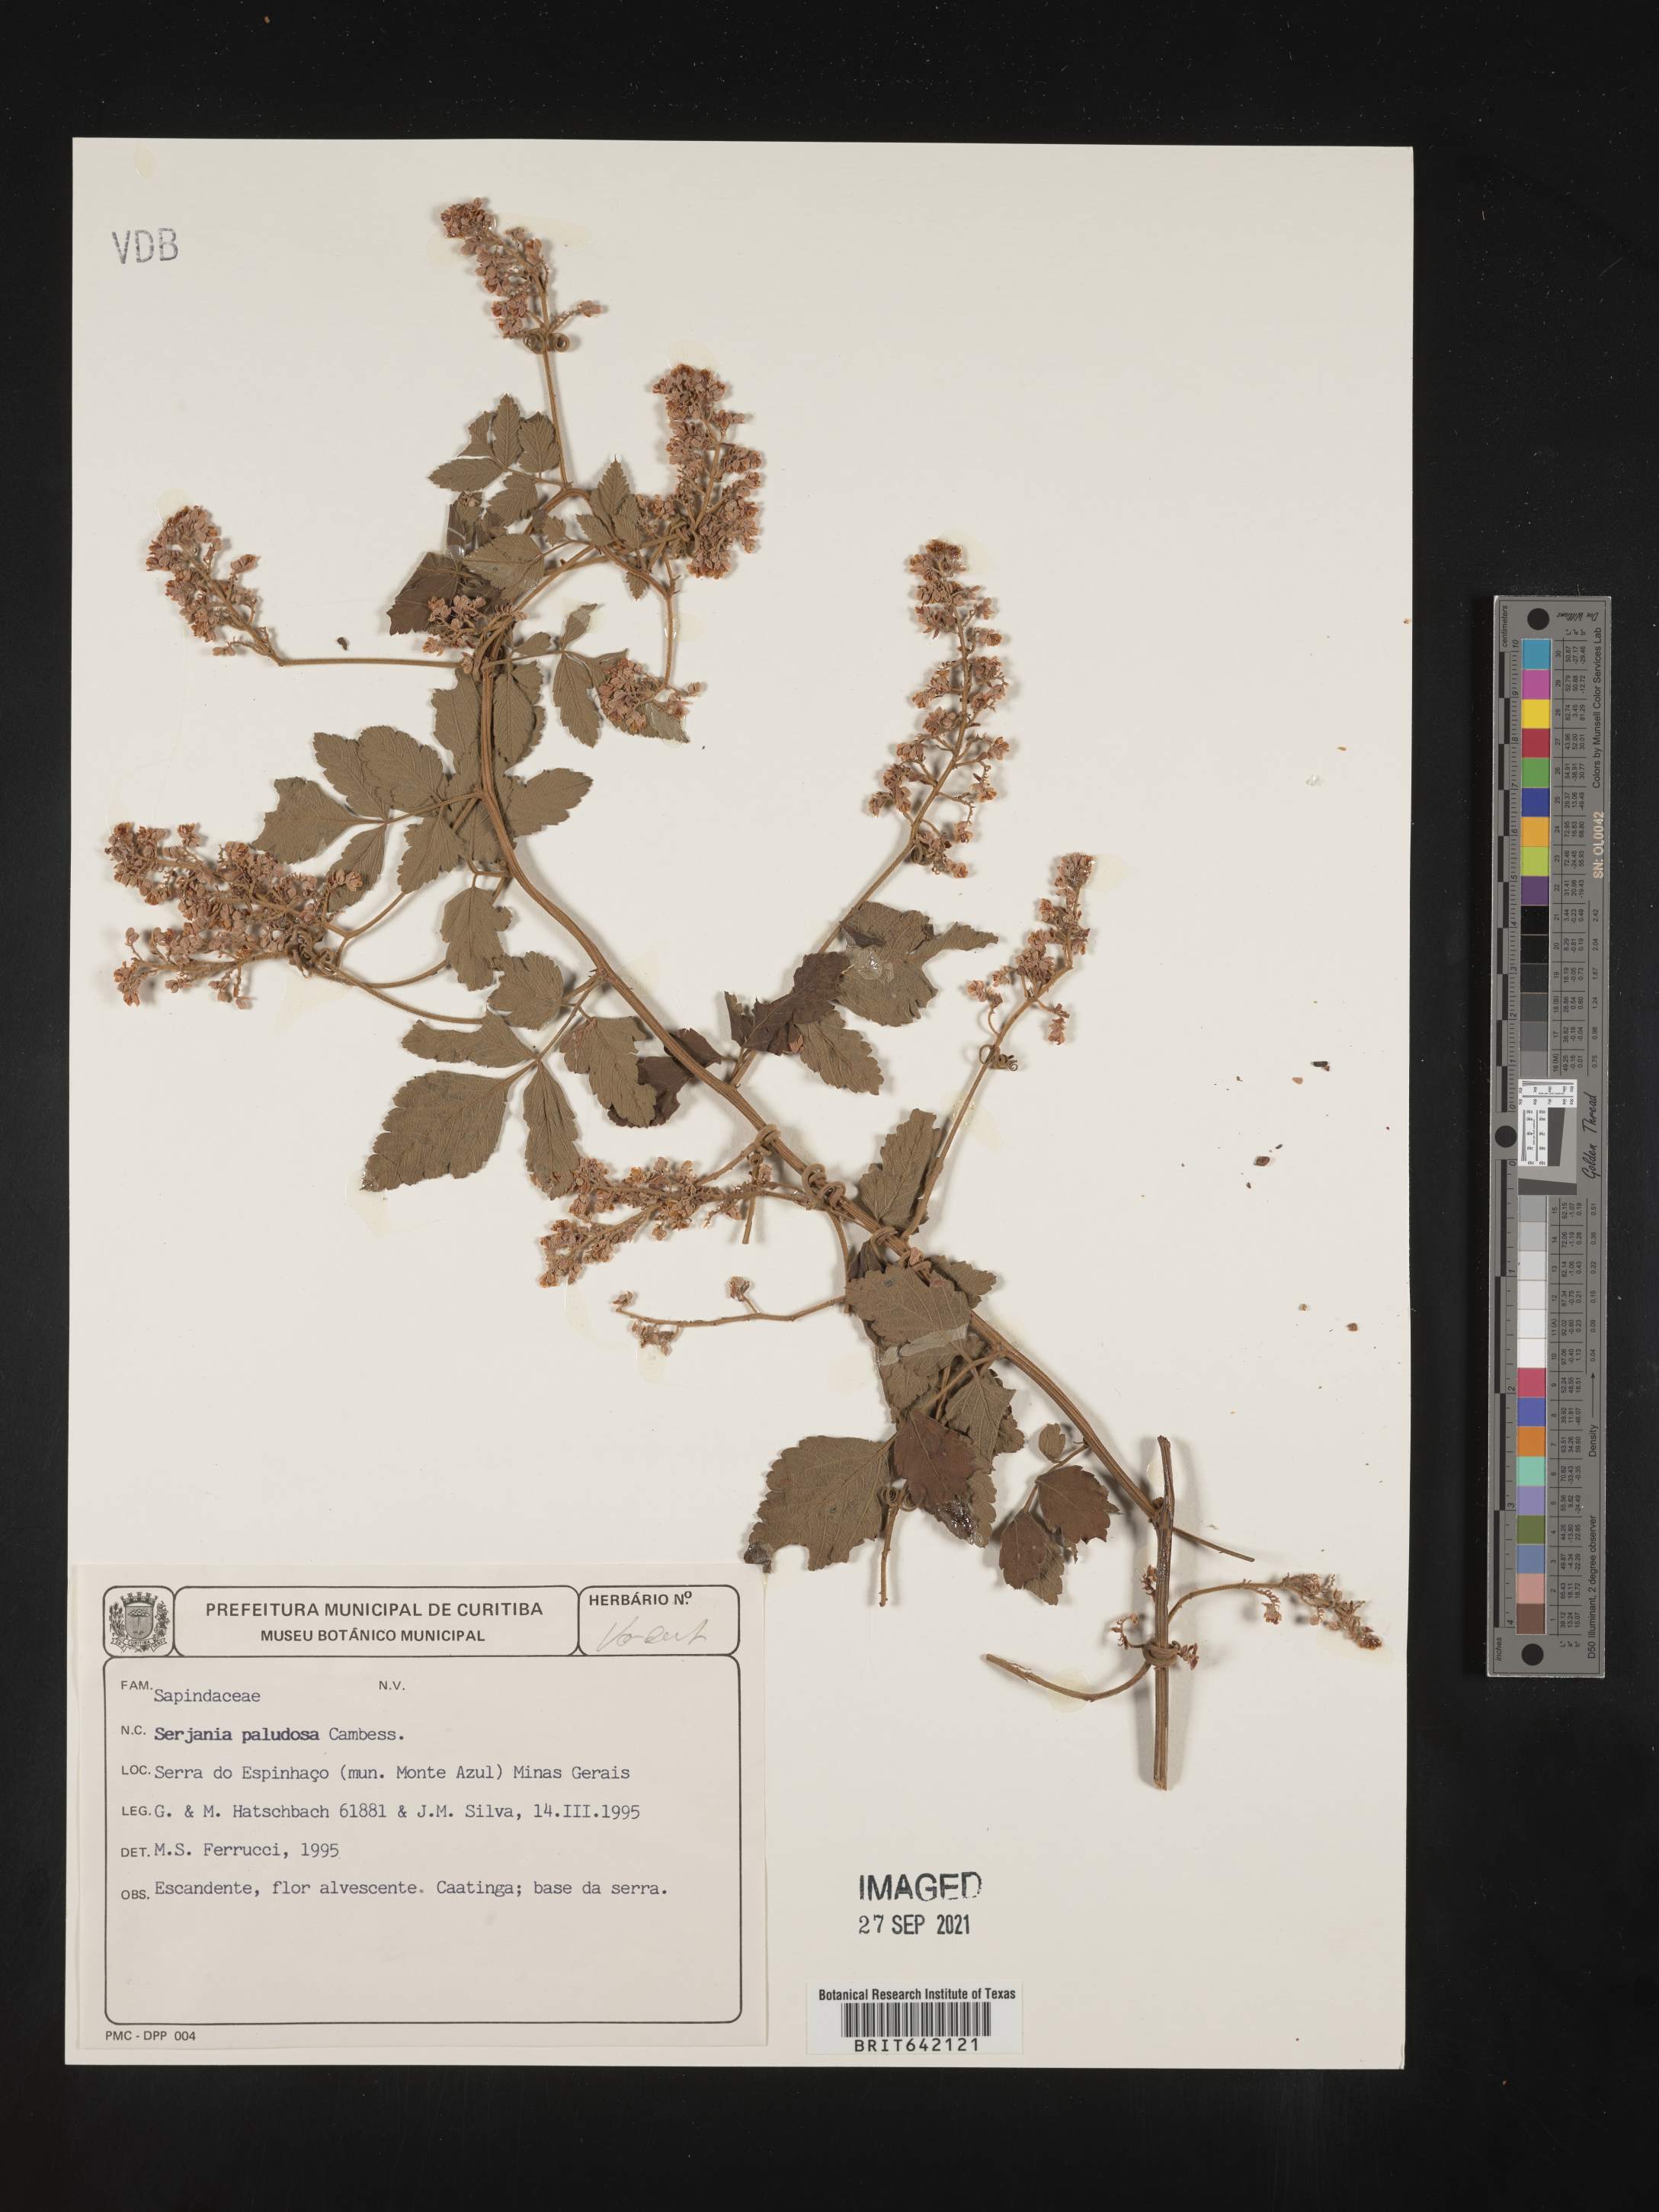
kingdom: Plantae
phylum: Tracheophyta
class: Magnoliopsida
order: Sapindales
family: Sapindaceae
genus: Serjania
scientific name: Serjania
